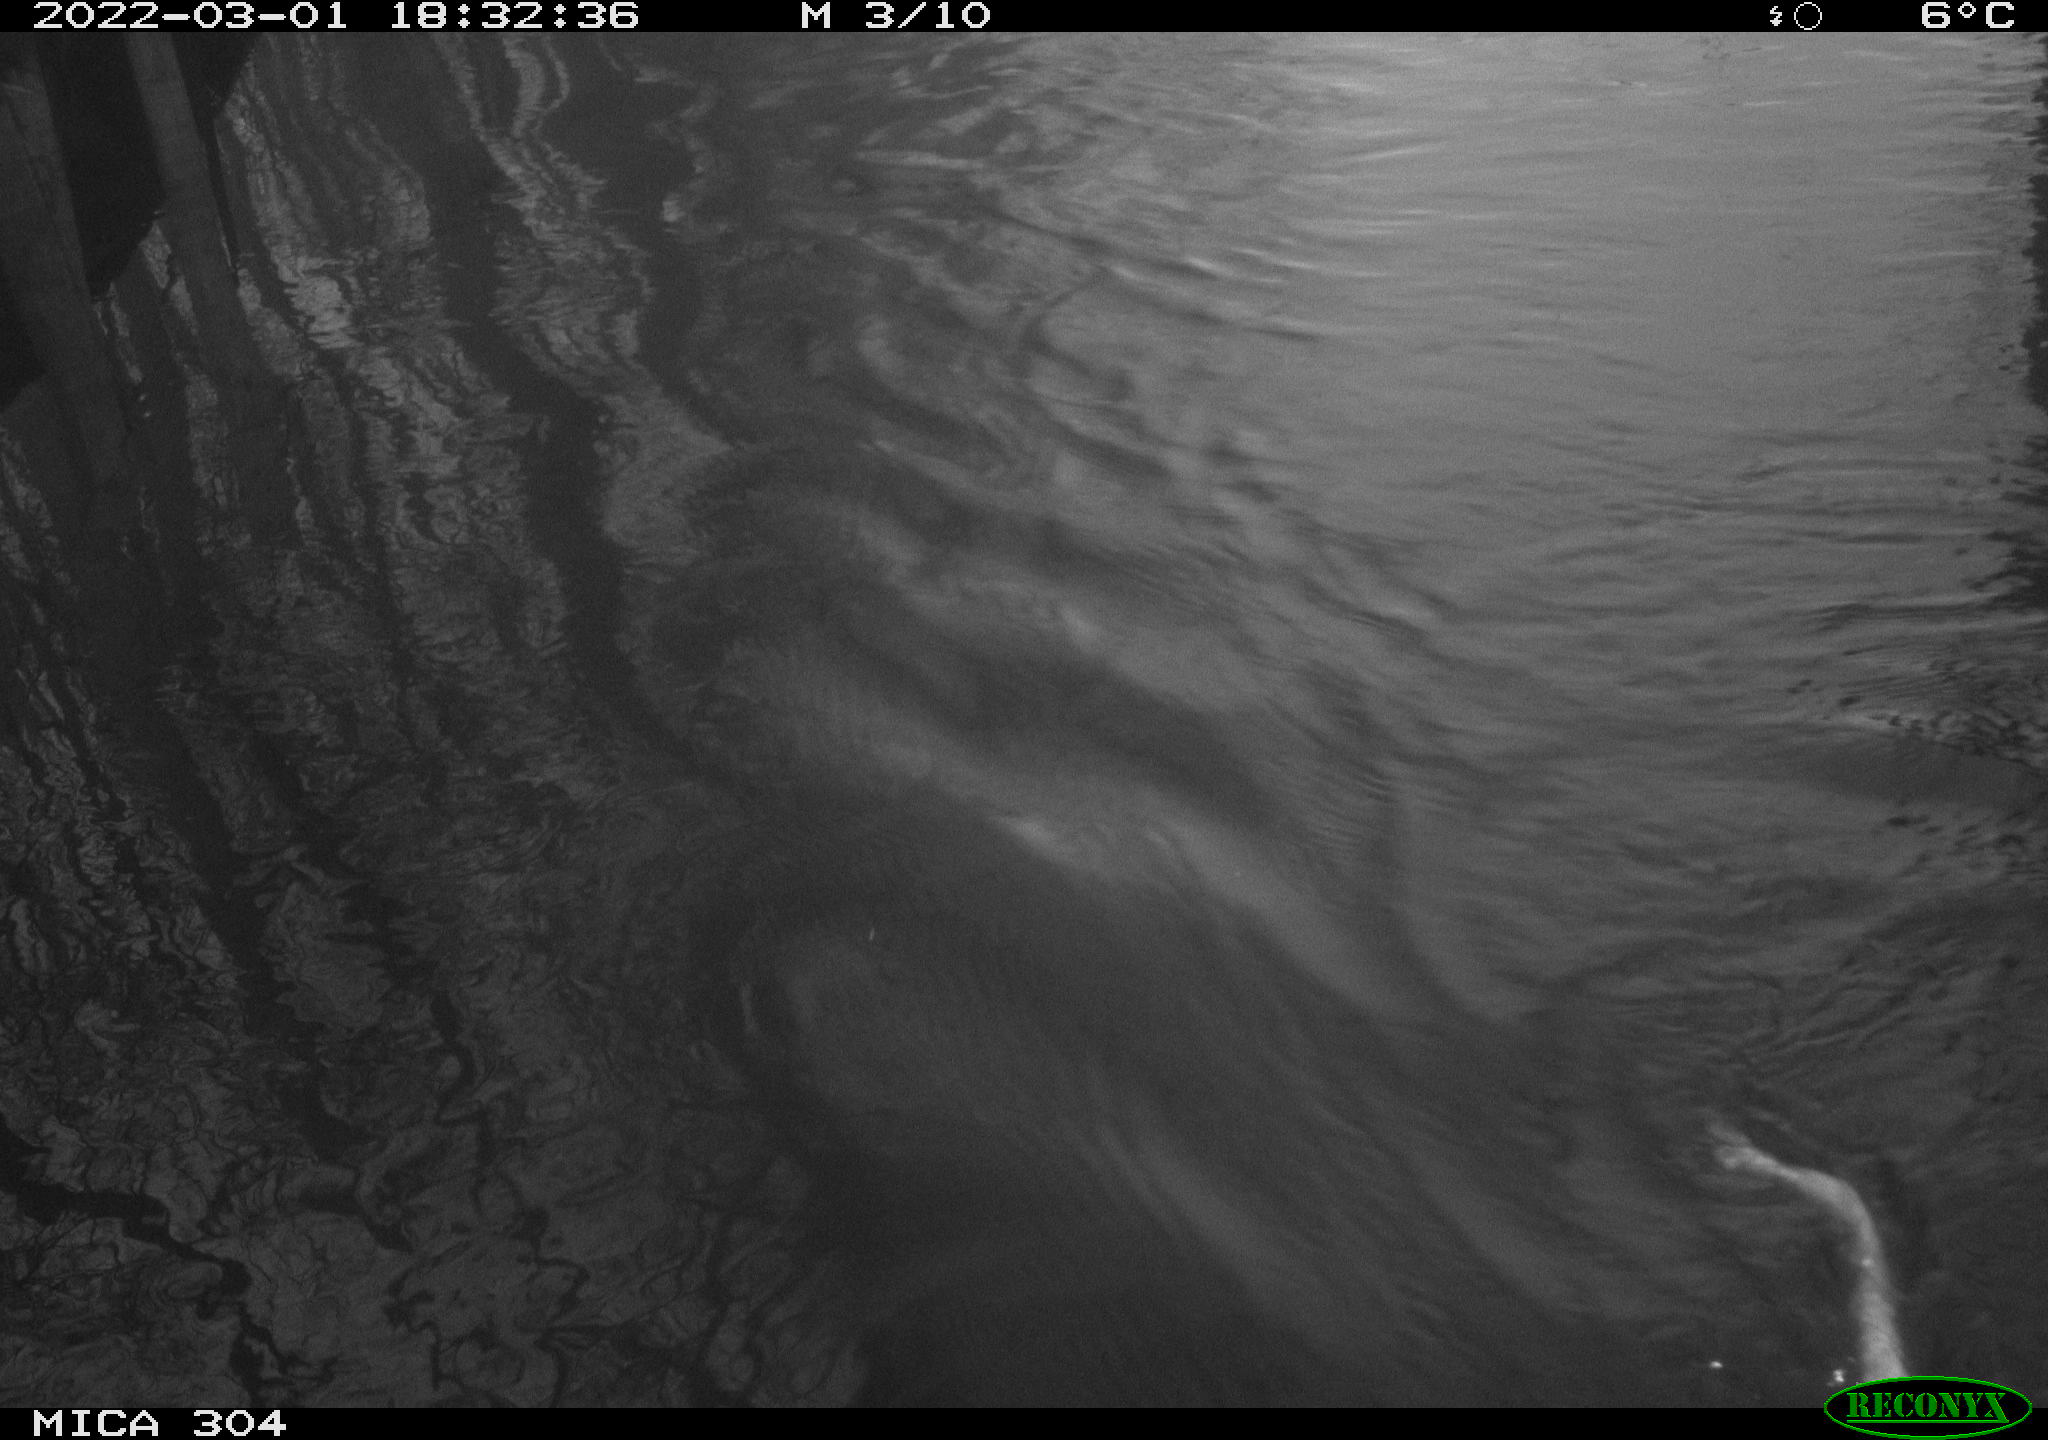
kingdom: Animalia
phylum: Chordata
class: Mammalia
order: Rodentia
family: Cricetidae
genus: Ondatra
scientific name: Ondatra zibethicus
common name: Muskrat
